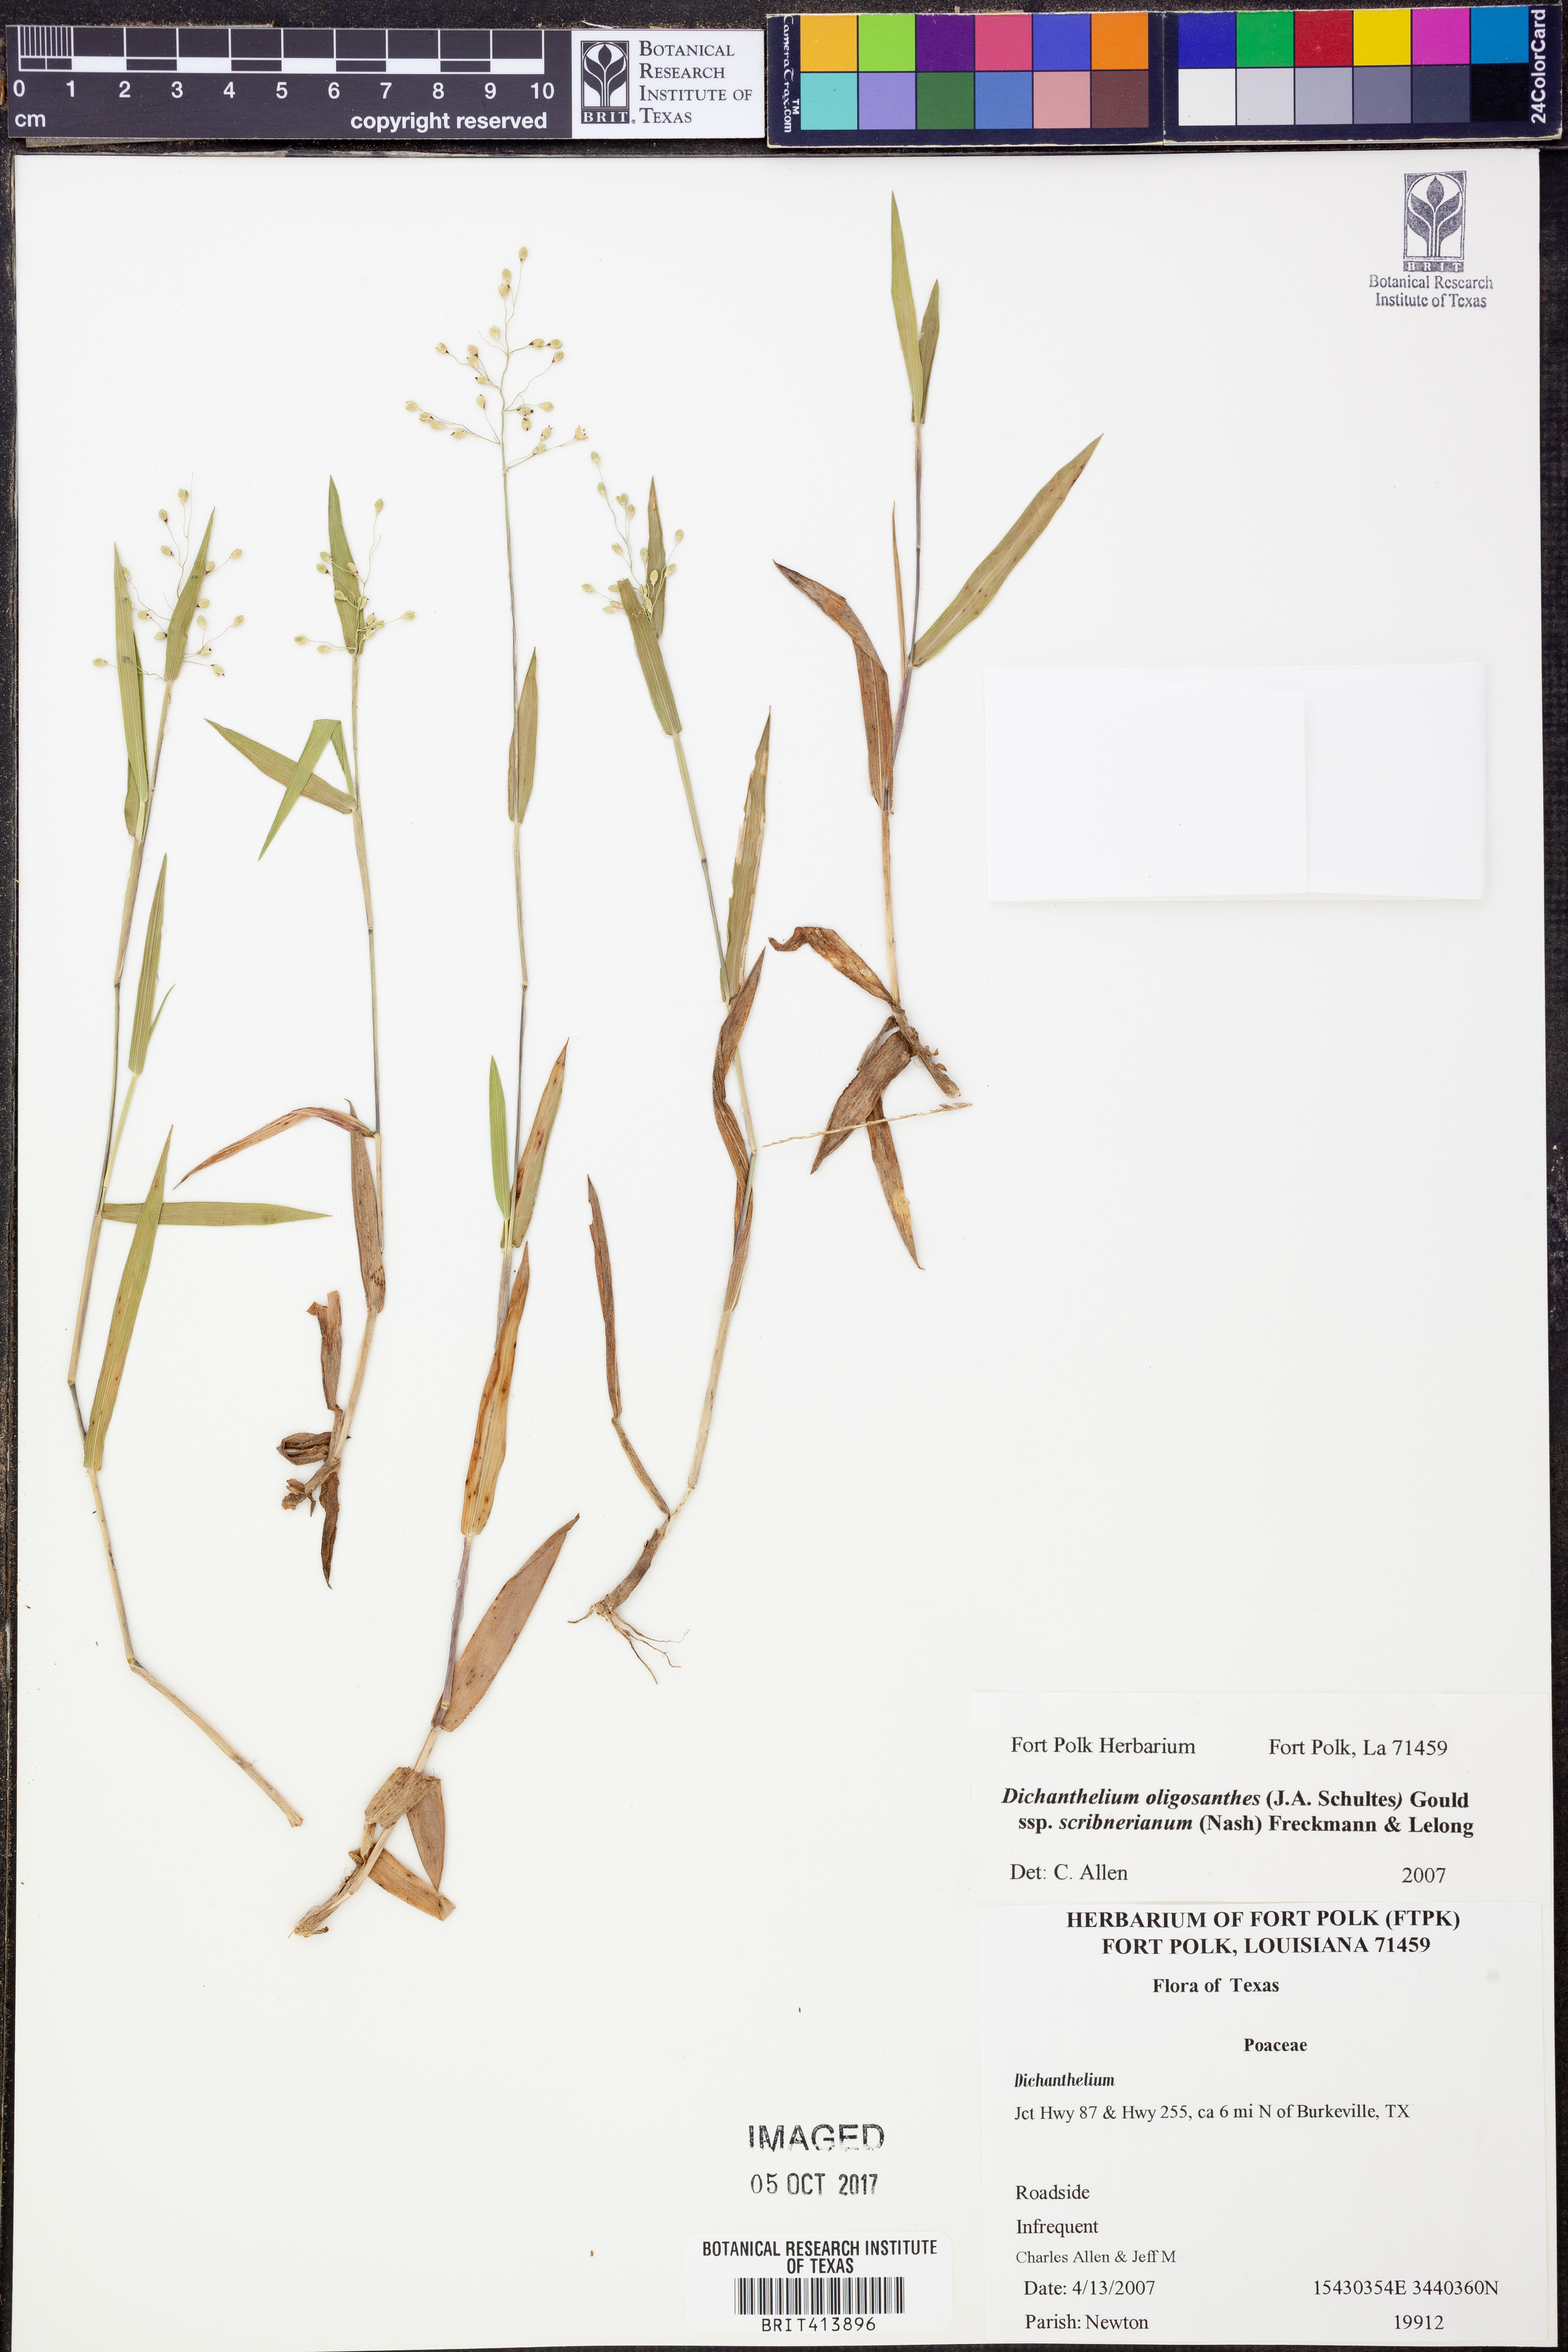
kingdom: Plantae
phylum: Tracheophyta
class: Liliopsida
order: Poales
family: Poaceae
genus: Dichanthelium
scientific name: Dichanthelium scribnerianum
